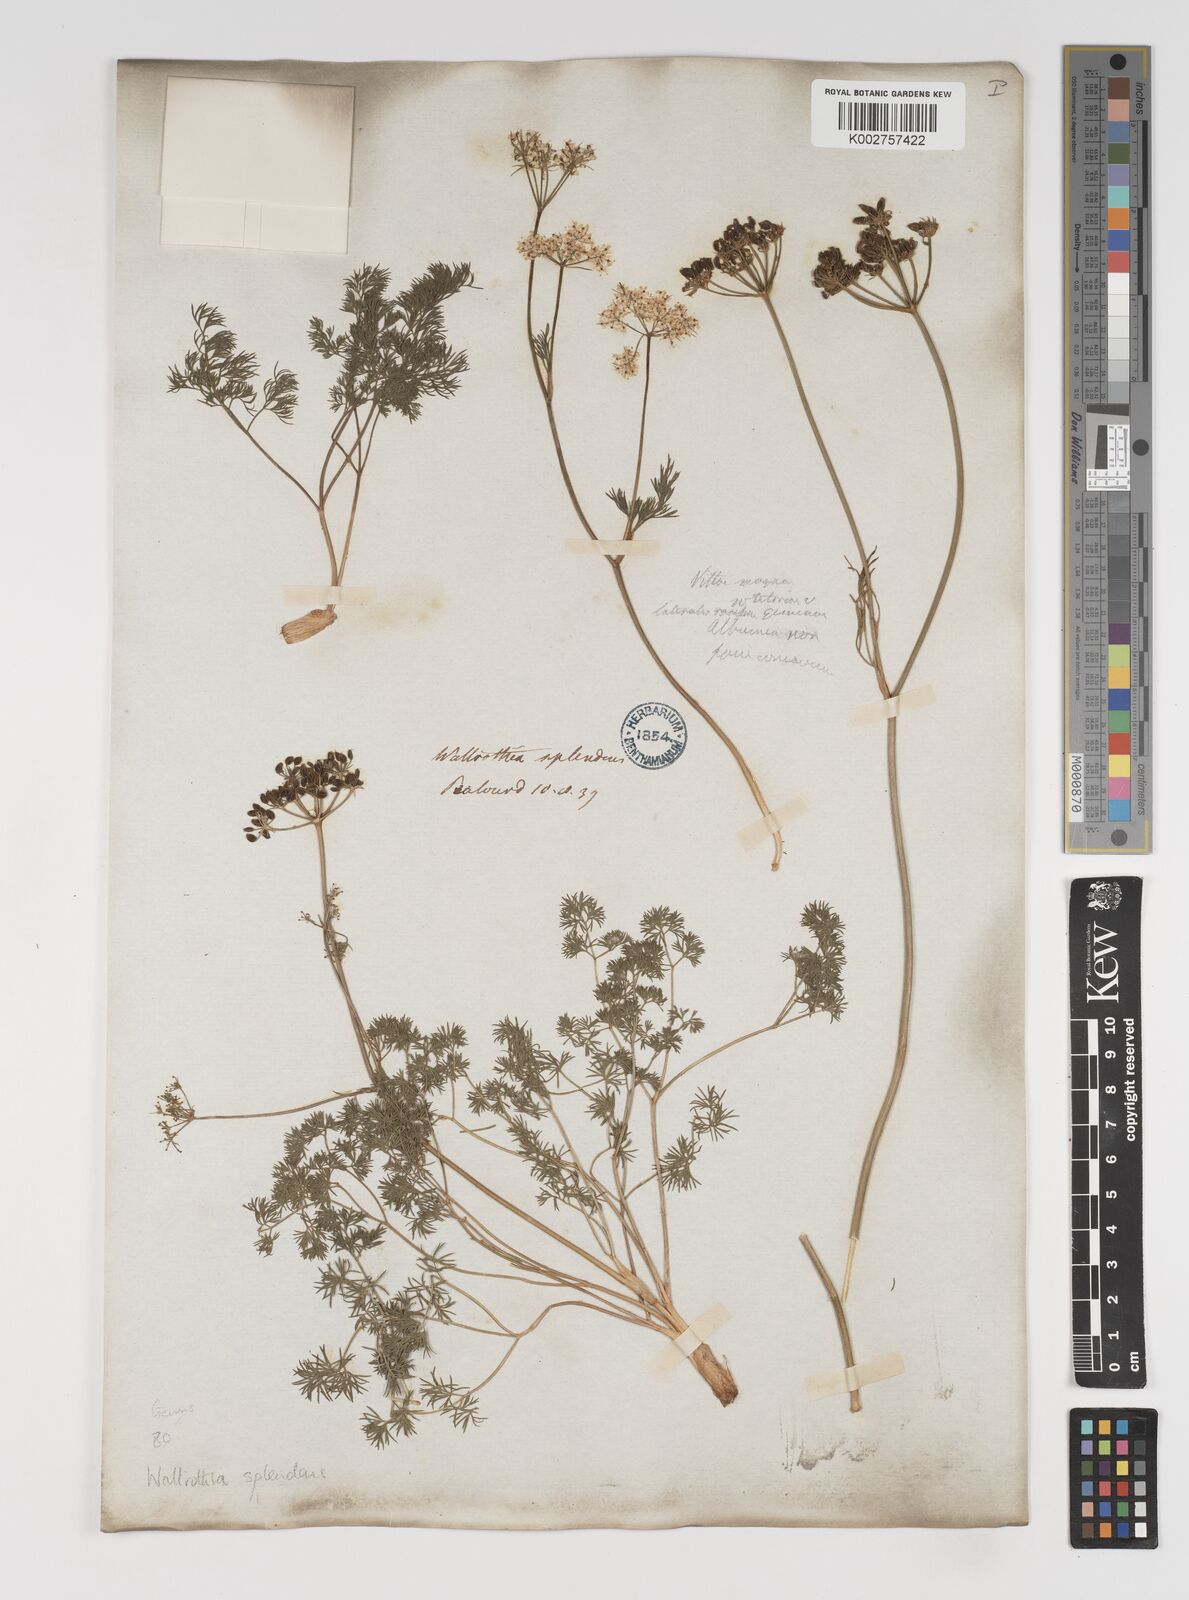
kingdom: Plantae
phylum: Tracheophyta
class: Magnoliopsida
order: Apiales
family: Apiaceae
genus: Dethawia
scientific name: Dethawia splendens
